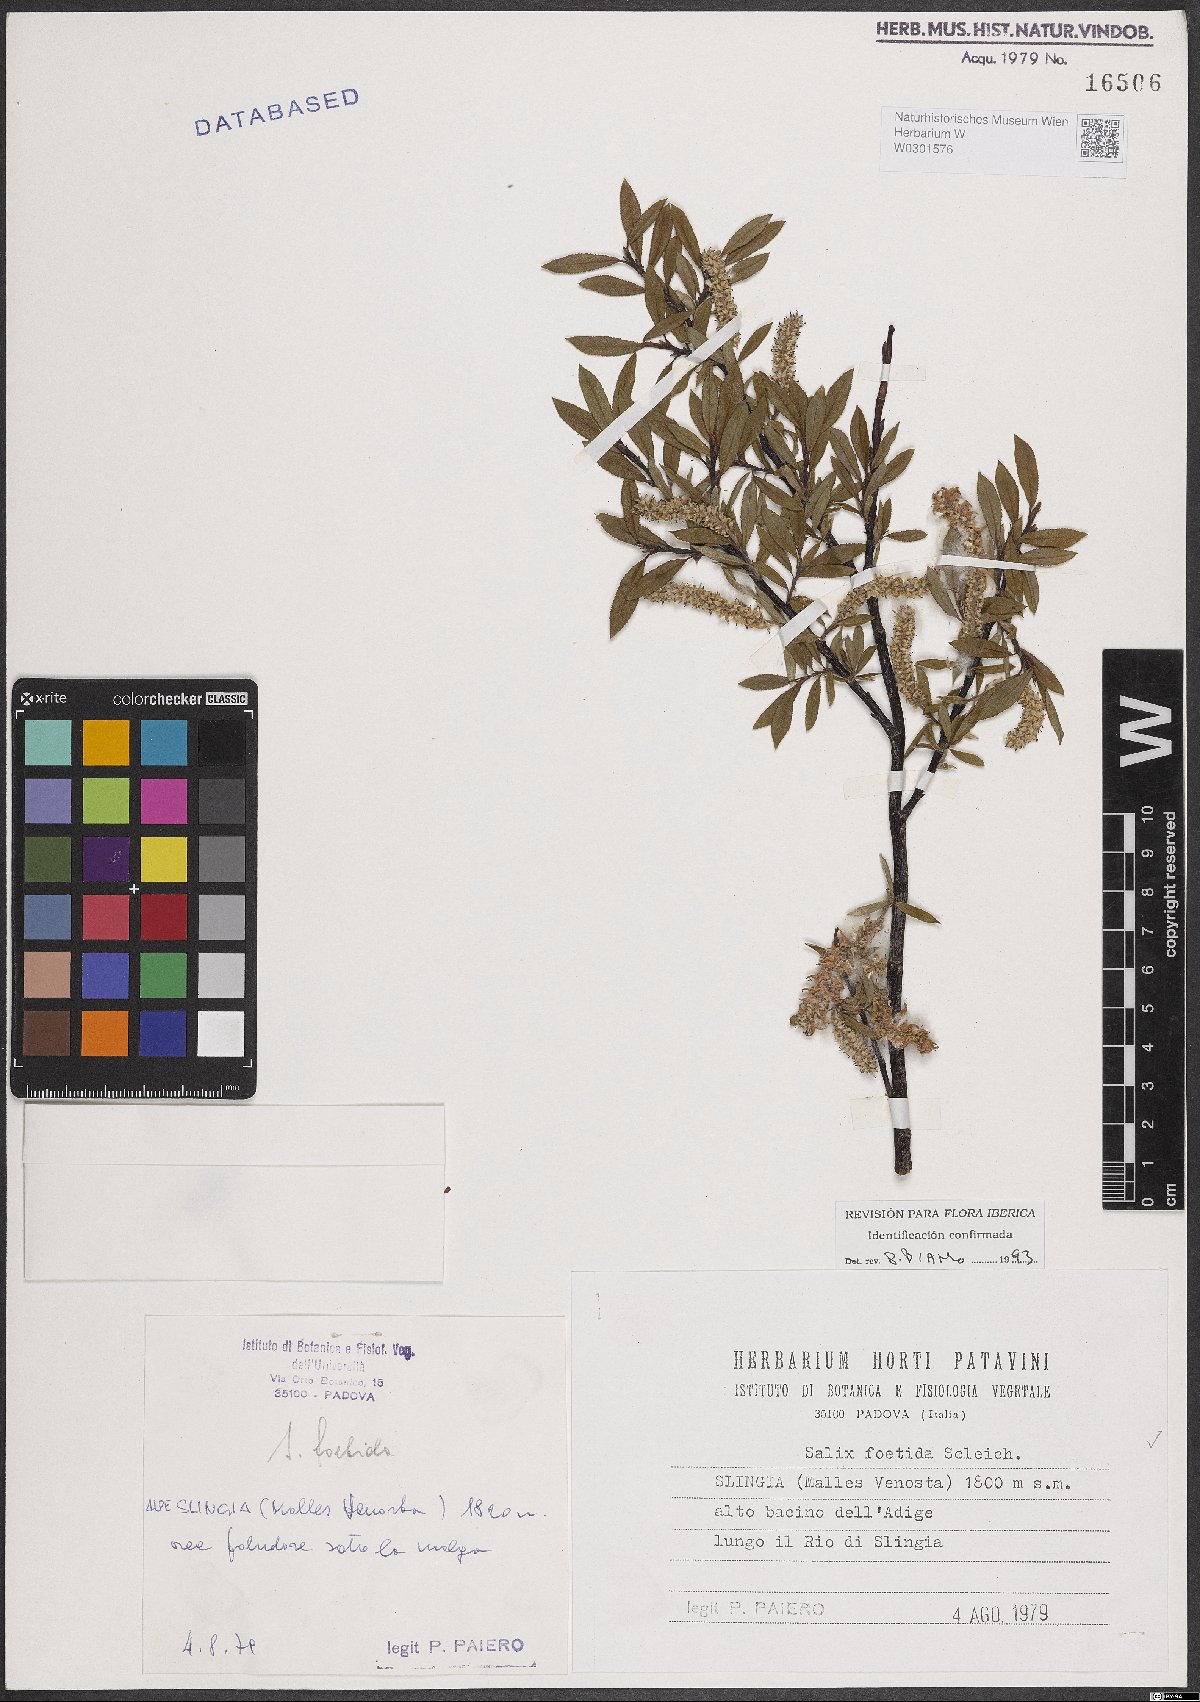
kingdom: Plantae
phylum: Tracheophyta
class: Magnoliopsida
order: Malpighiales
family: Salicaceae
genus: Salix
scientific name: Salix foetida
